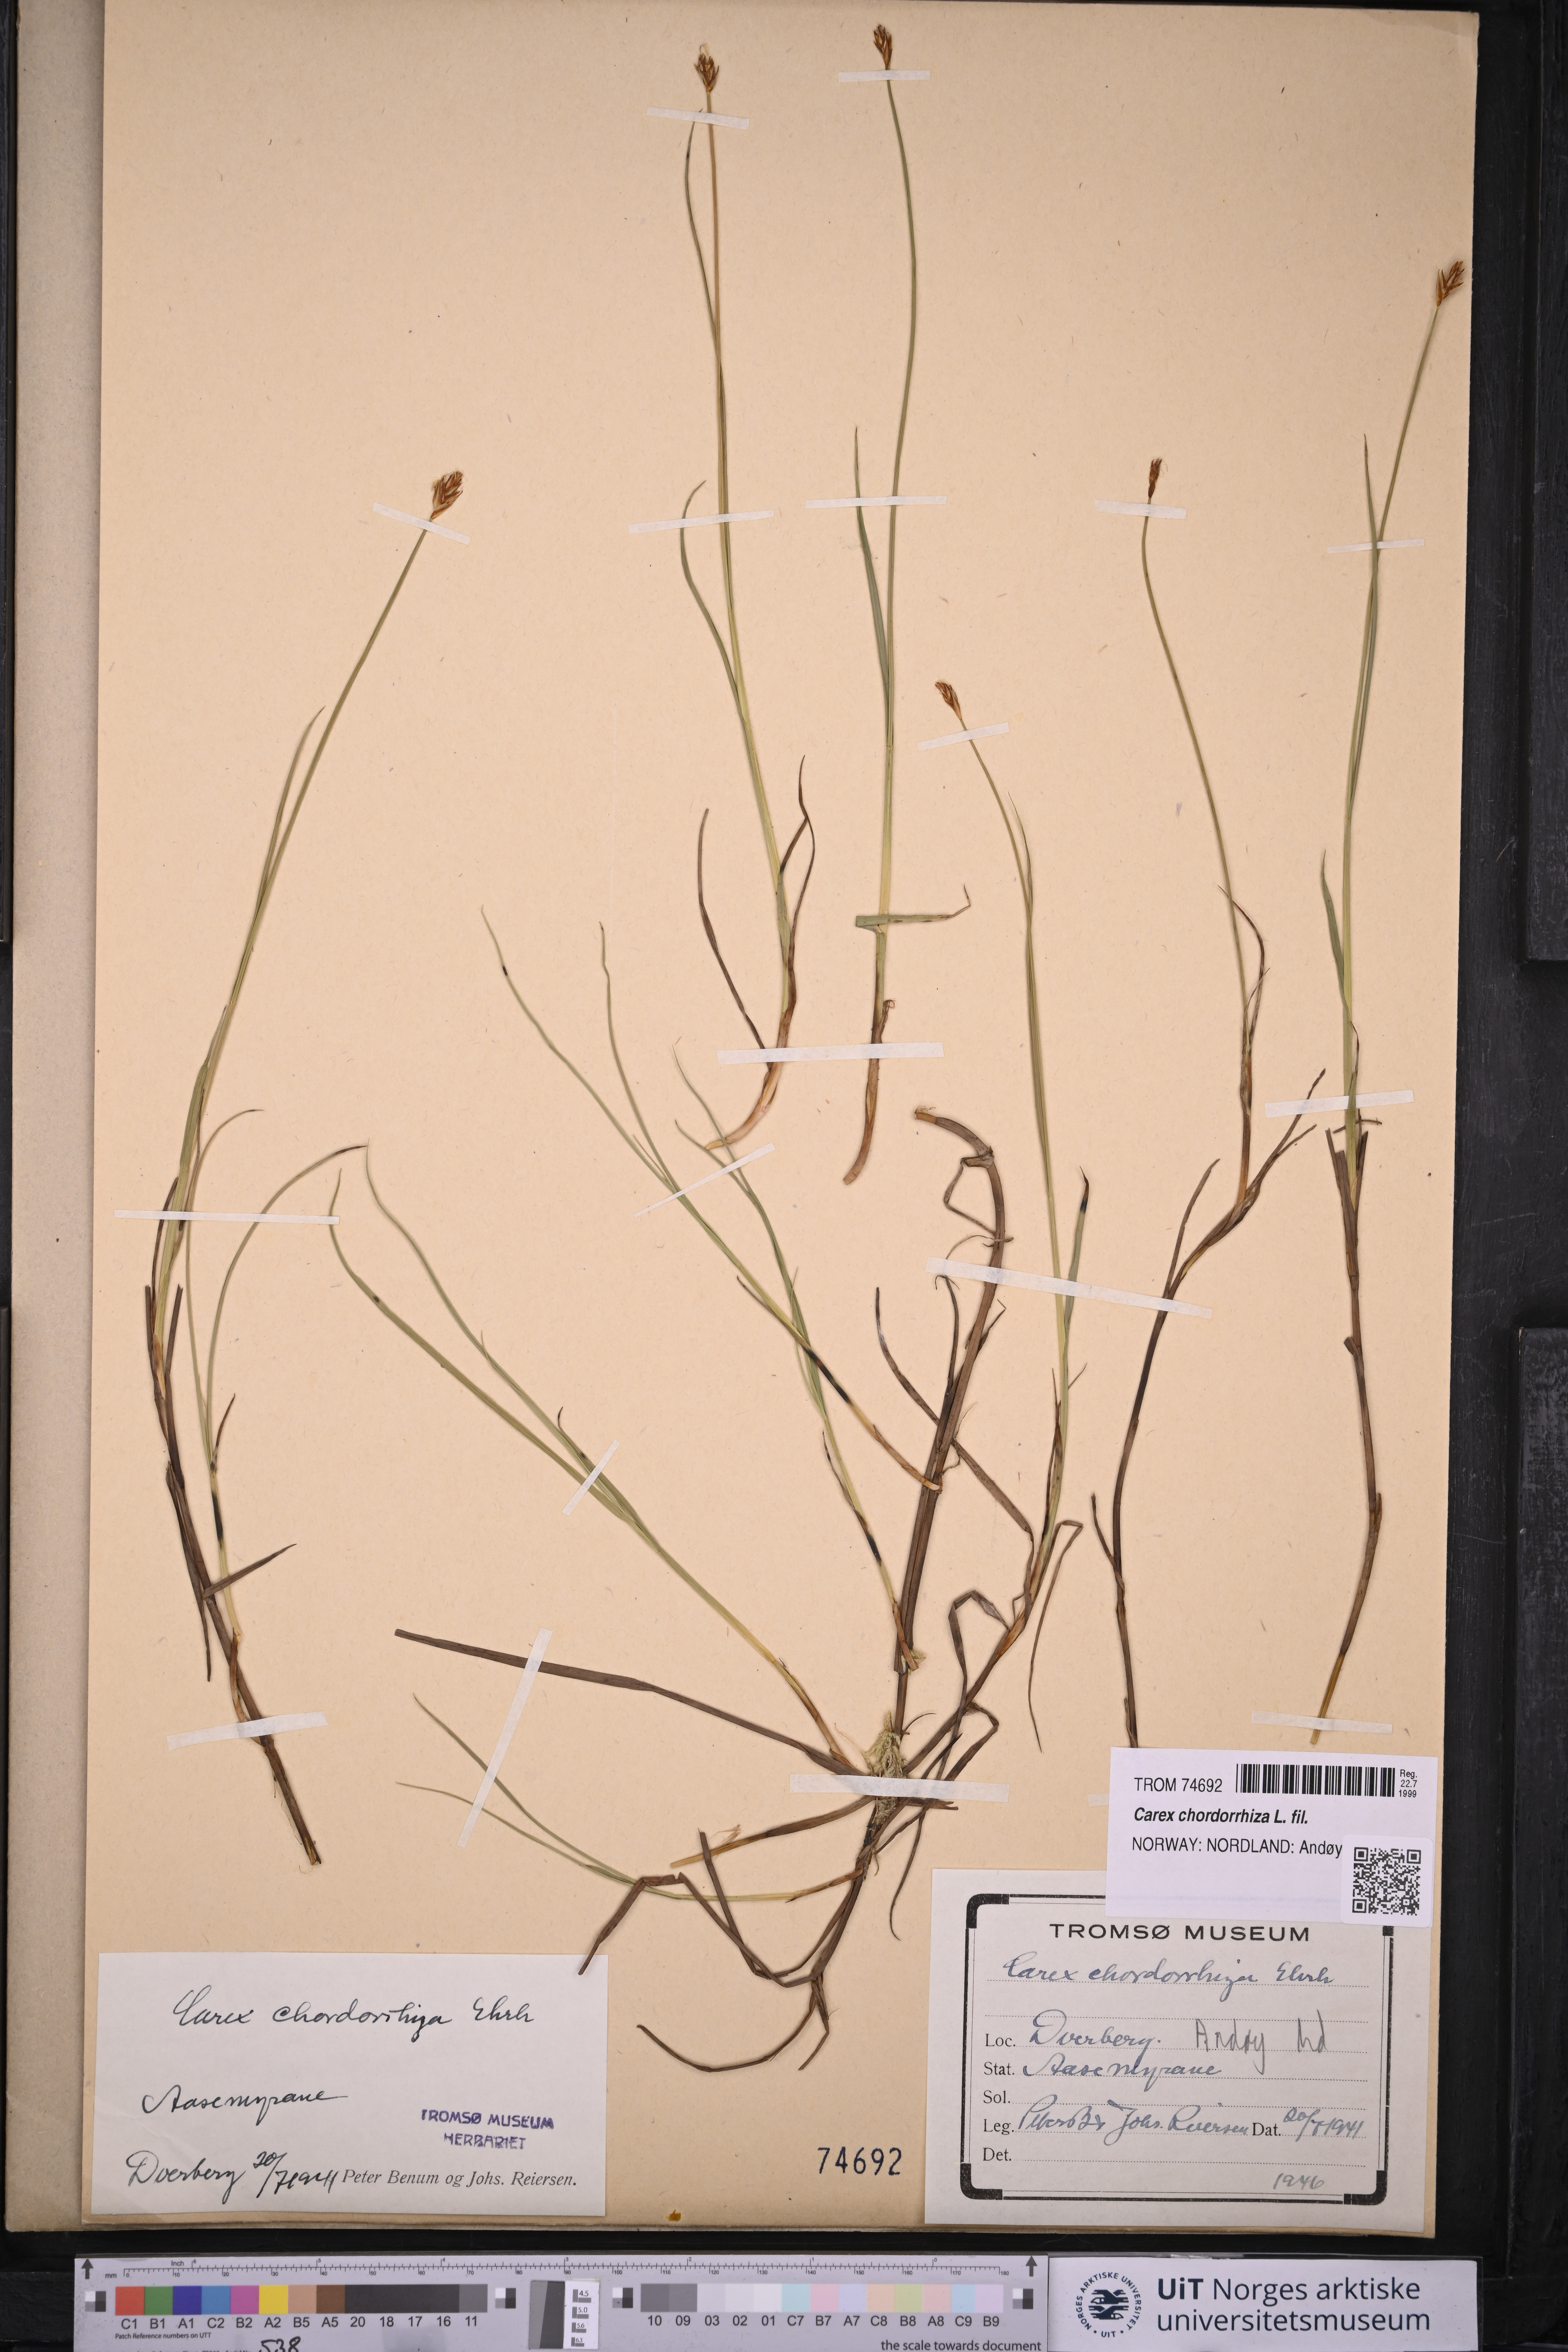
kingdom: Plantae
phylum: Tracheophyta
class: Liliopsida
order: Poales
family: Cyperaceae
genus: Carex
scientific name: Carex chordorrhiza
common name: String sedge
